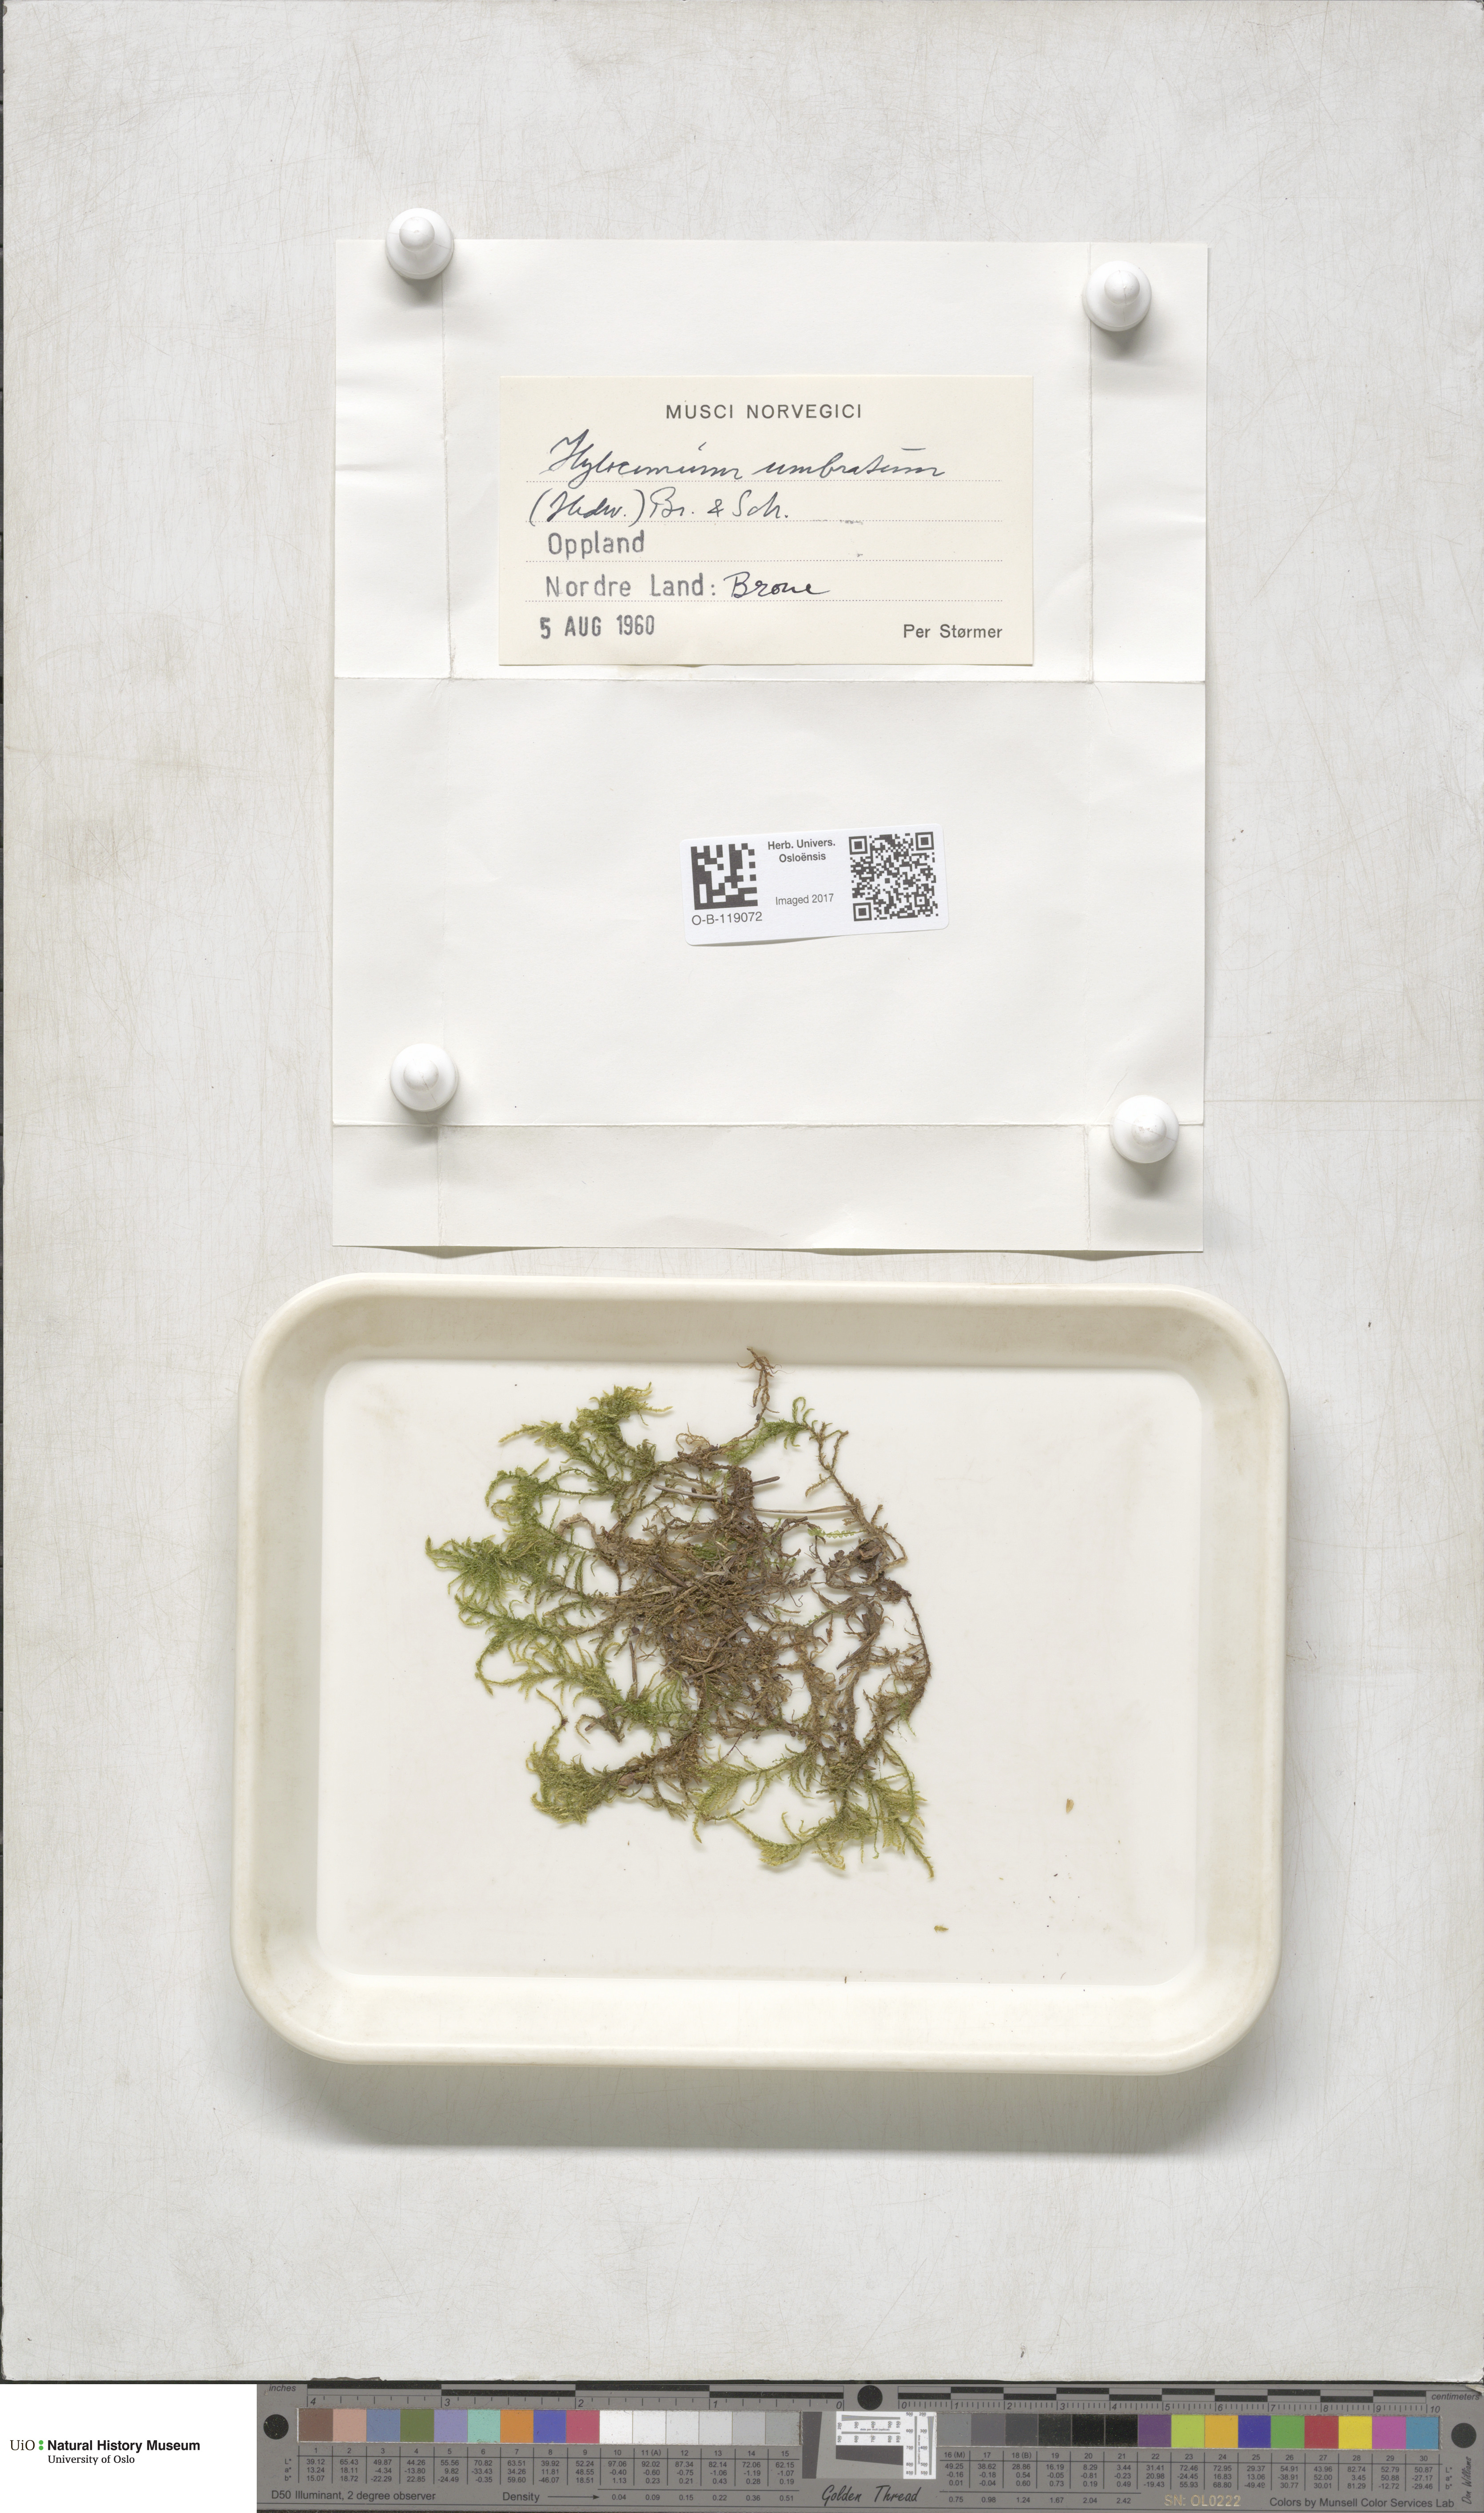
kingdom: Plantae
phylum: Bryophyta
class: Bryopsida
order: Hypnales
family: Hylocomiaceae
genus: Hylocomiastrum
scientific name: Hylocomiastrum umbratum
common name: Shaded woods moss
